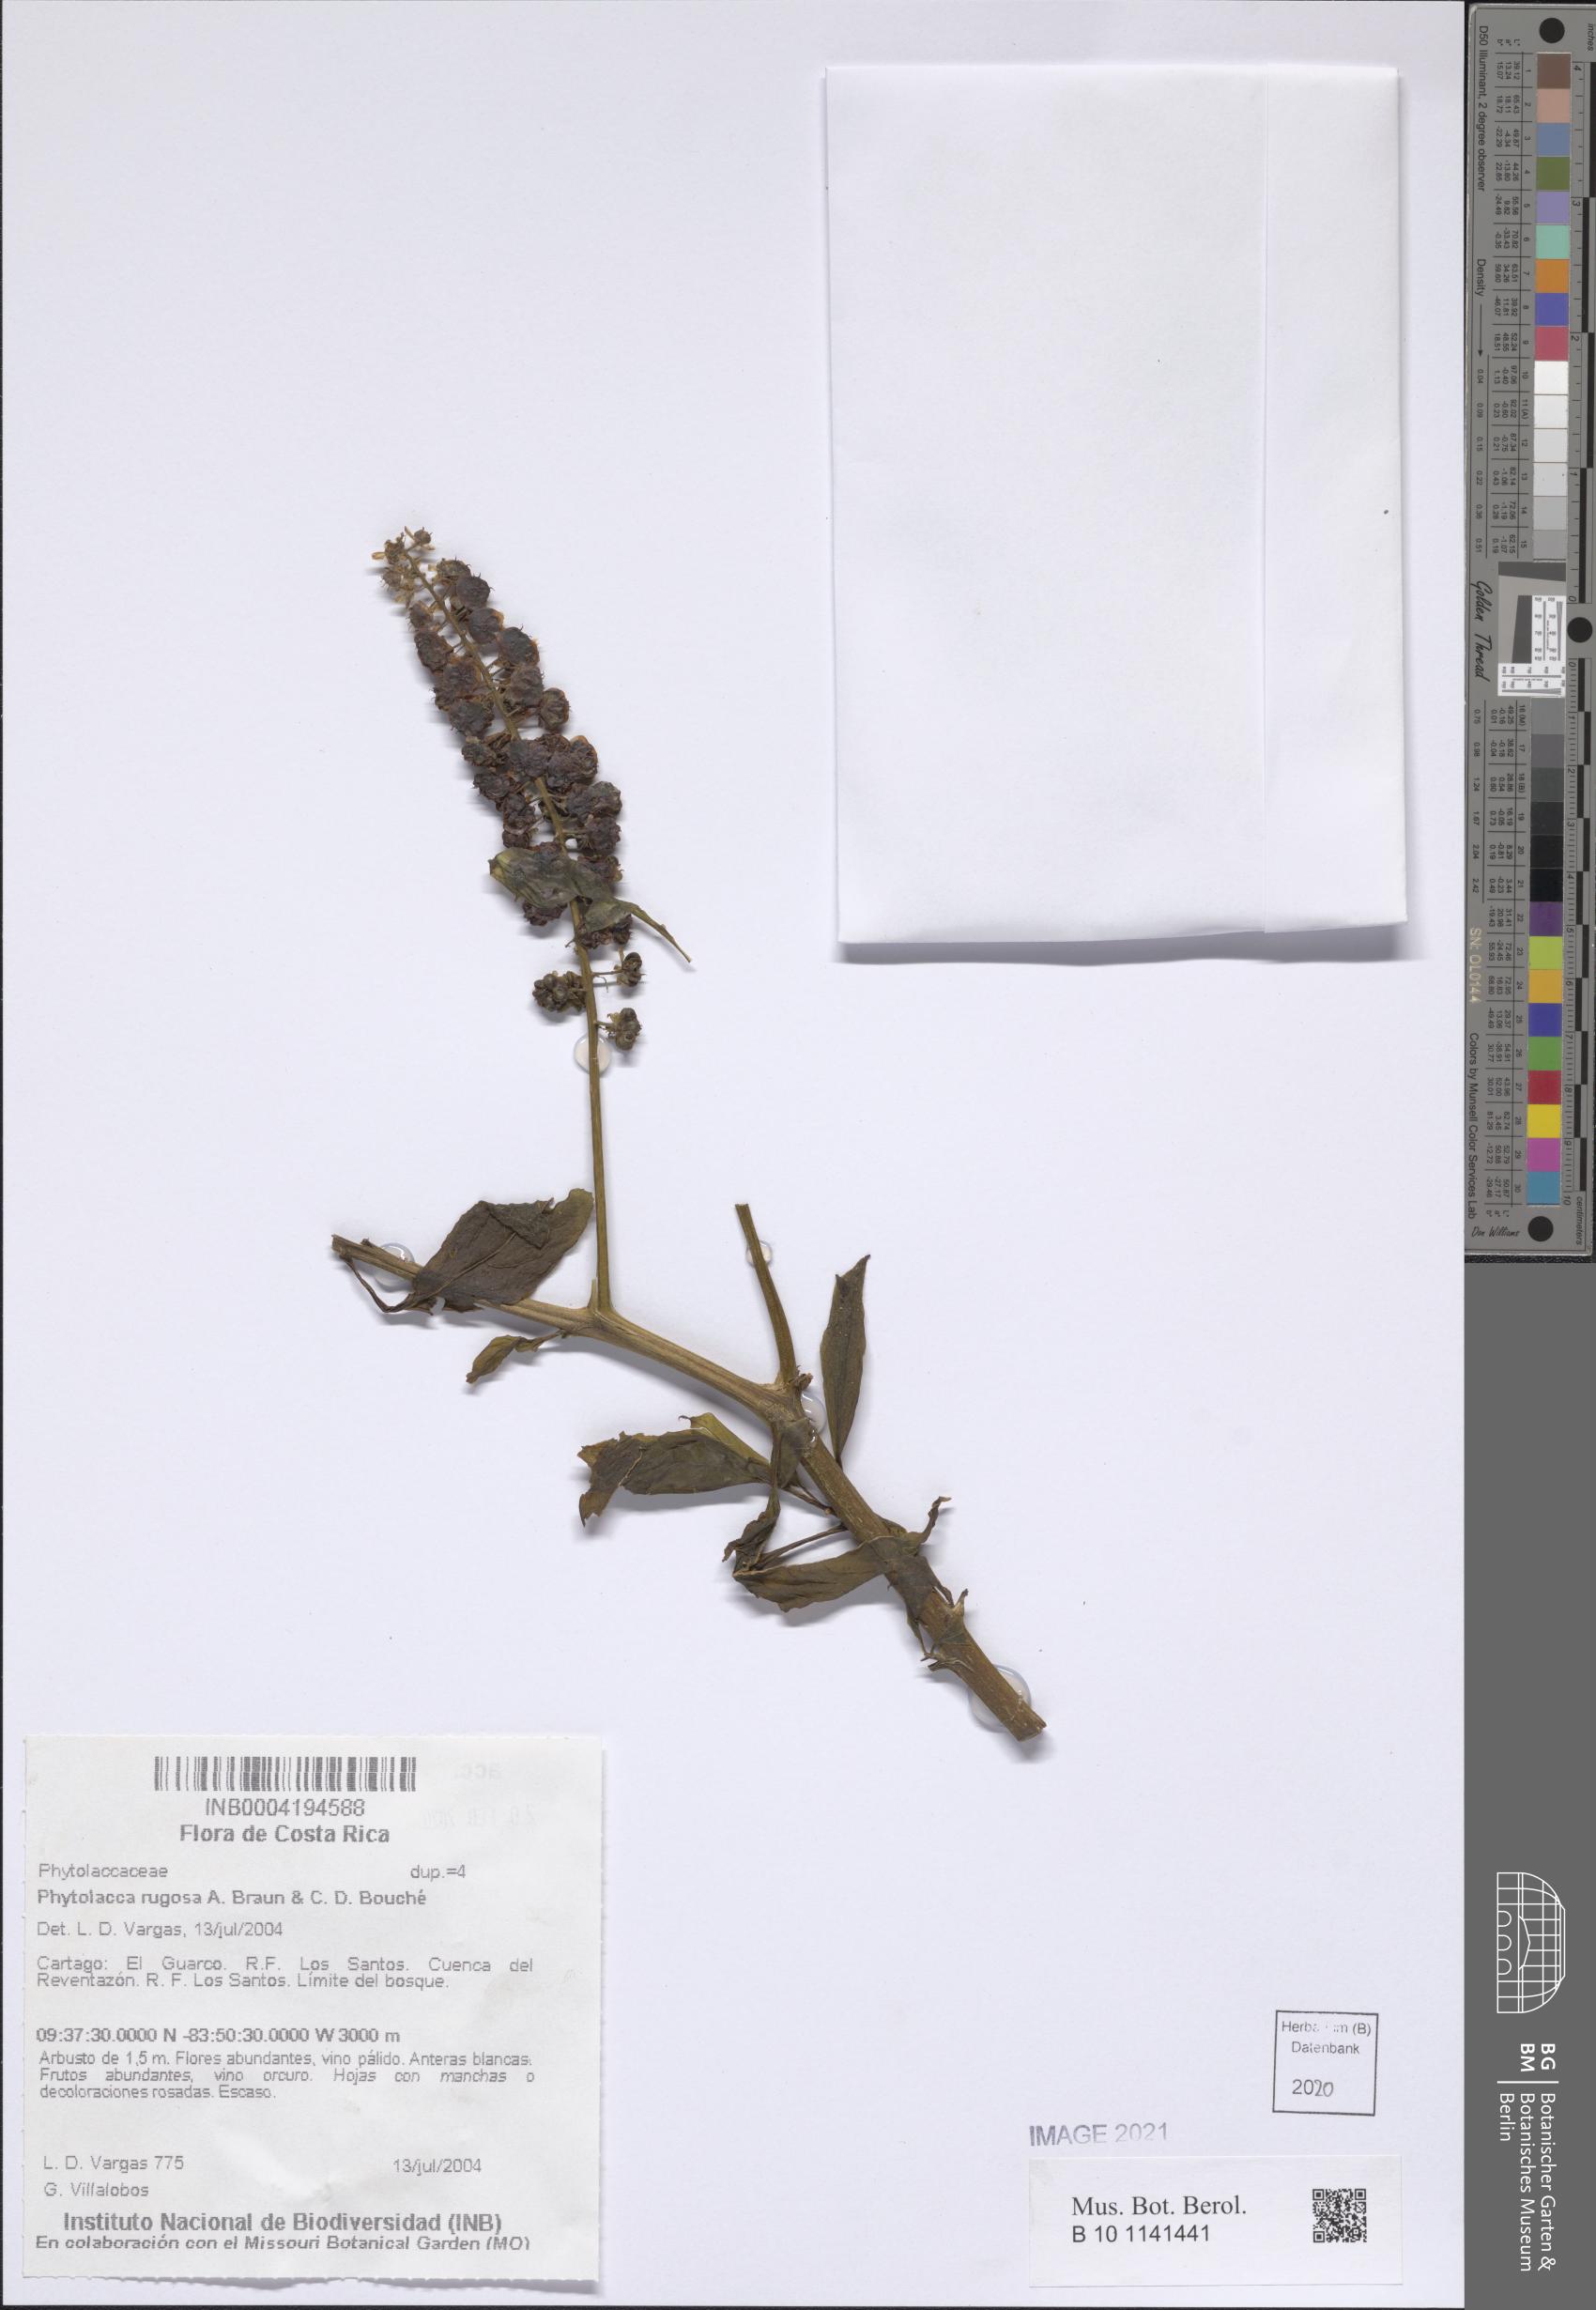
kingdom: Plantae
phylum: Tracheophyta
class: Magnoliopsida
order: Caryophyllales
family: Phytolaccaceae
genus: Phytolacca
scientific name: Phytolacca rugosa
